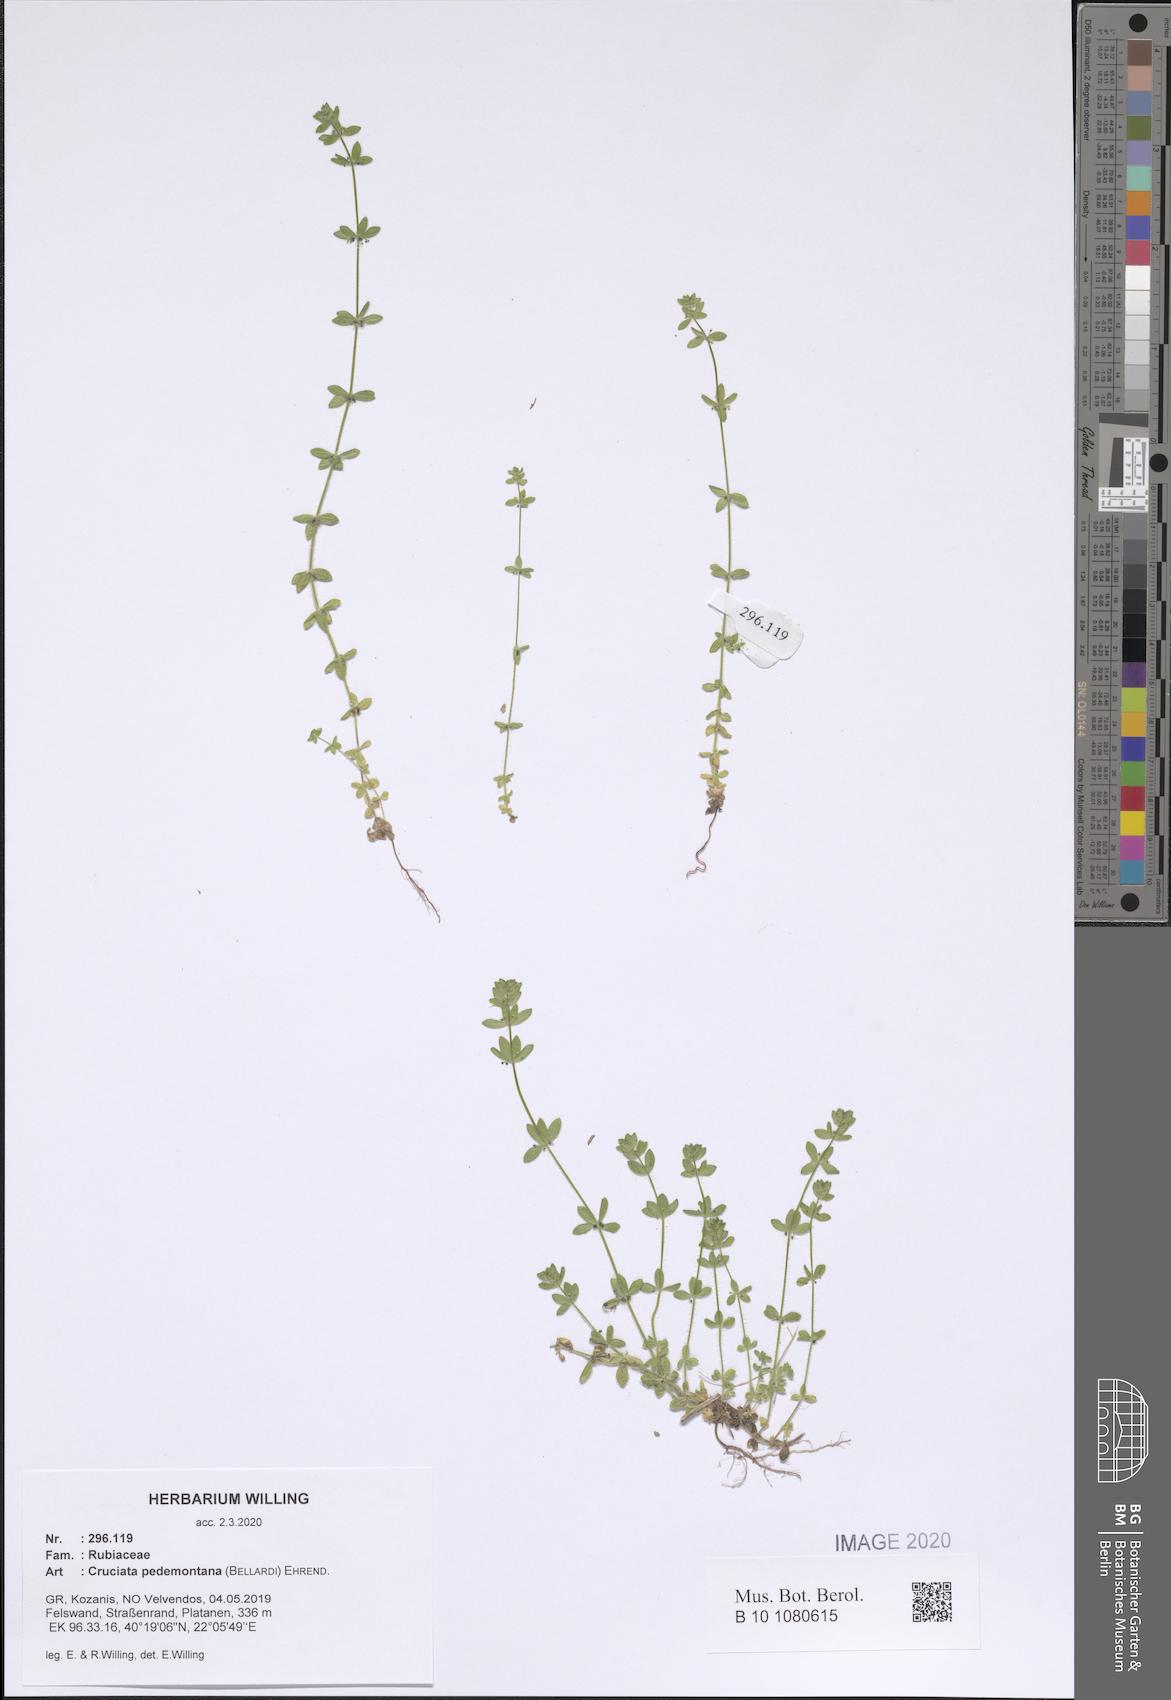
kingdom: Plantae
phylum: Tracheophyta
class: Magnoliopsida
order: Gentianales
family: Rubiaceae
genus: Cruciata
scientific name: Cruciata pedemontana
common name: Piedmont bedstraw
